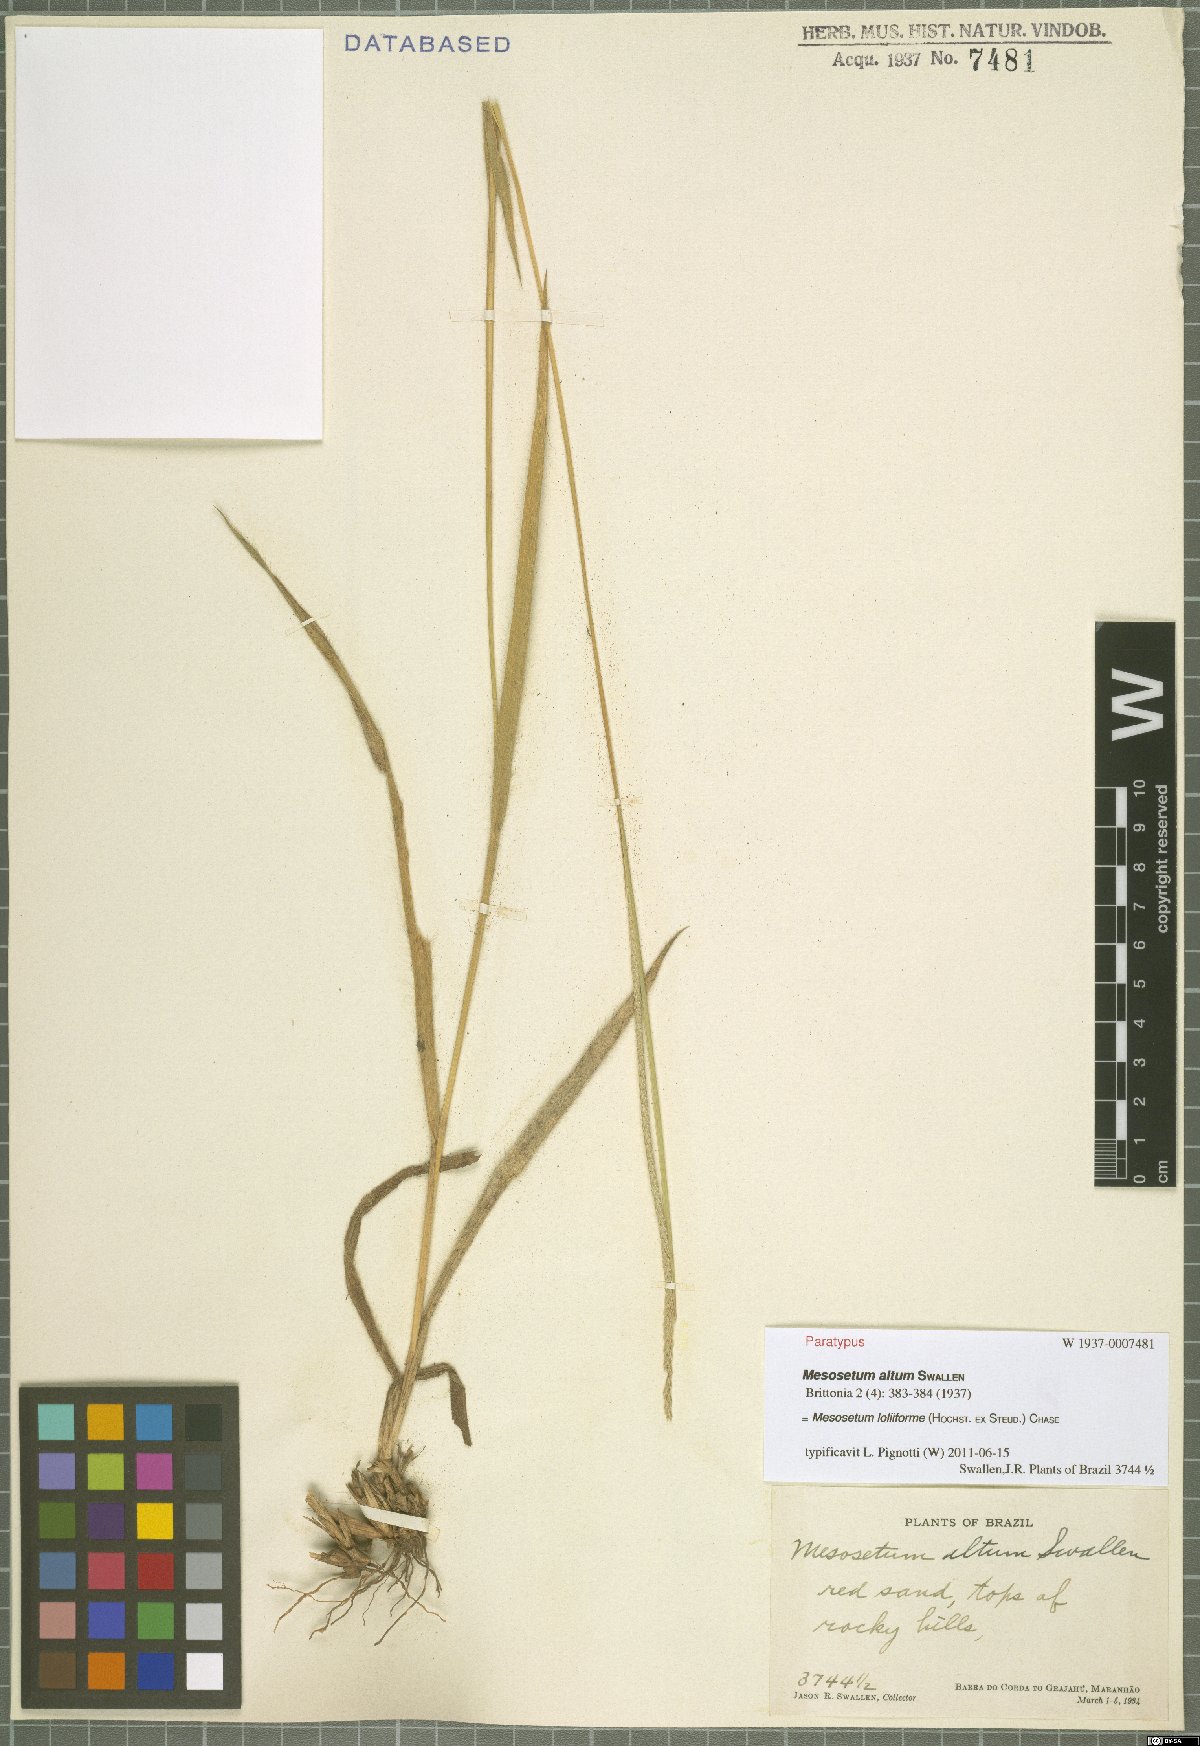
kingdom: Plantae
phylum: Tracheophyta
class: Liliopsida
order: Poales
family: Poaceae
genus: Mesosetum
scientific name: Mesosetum loliiforme
